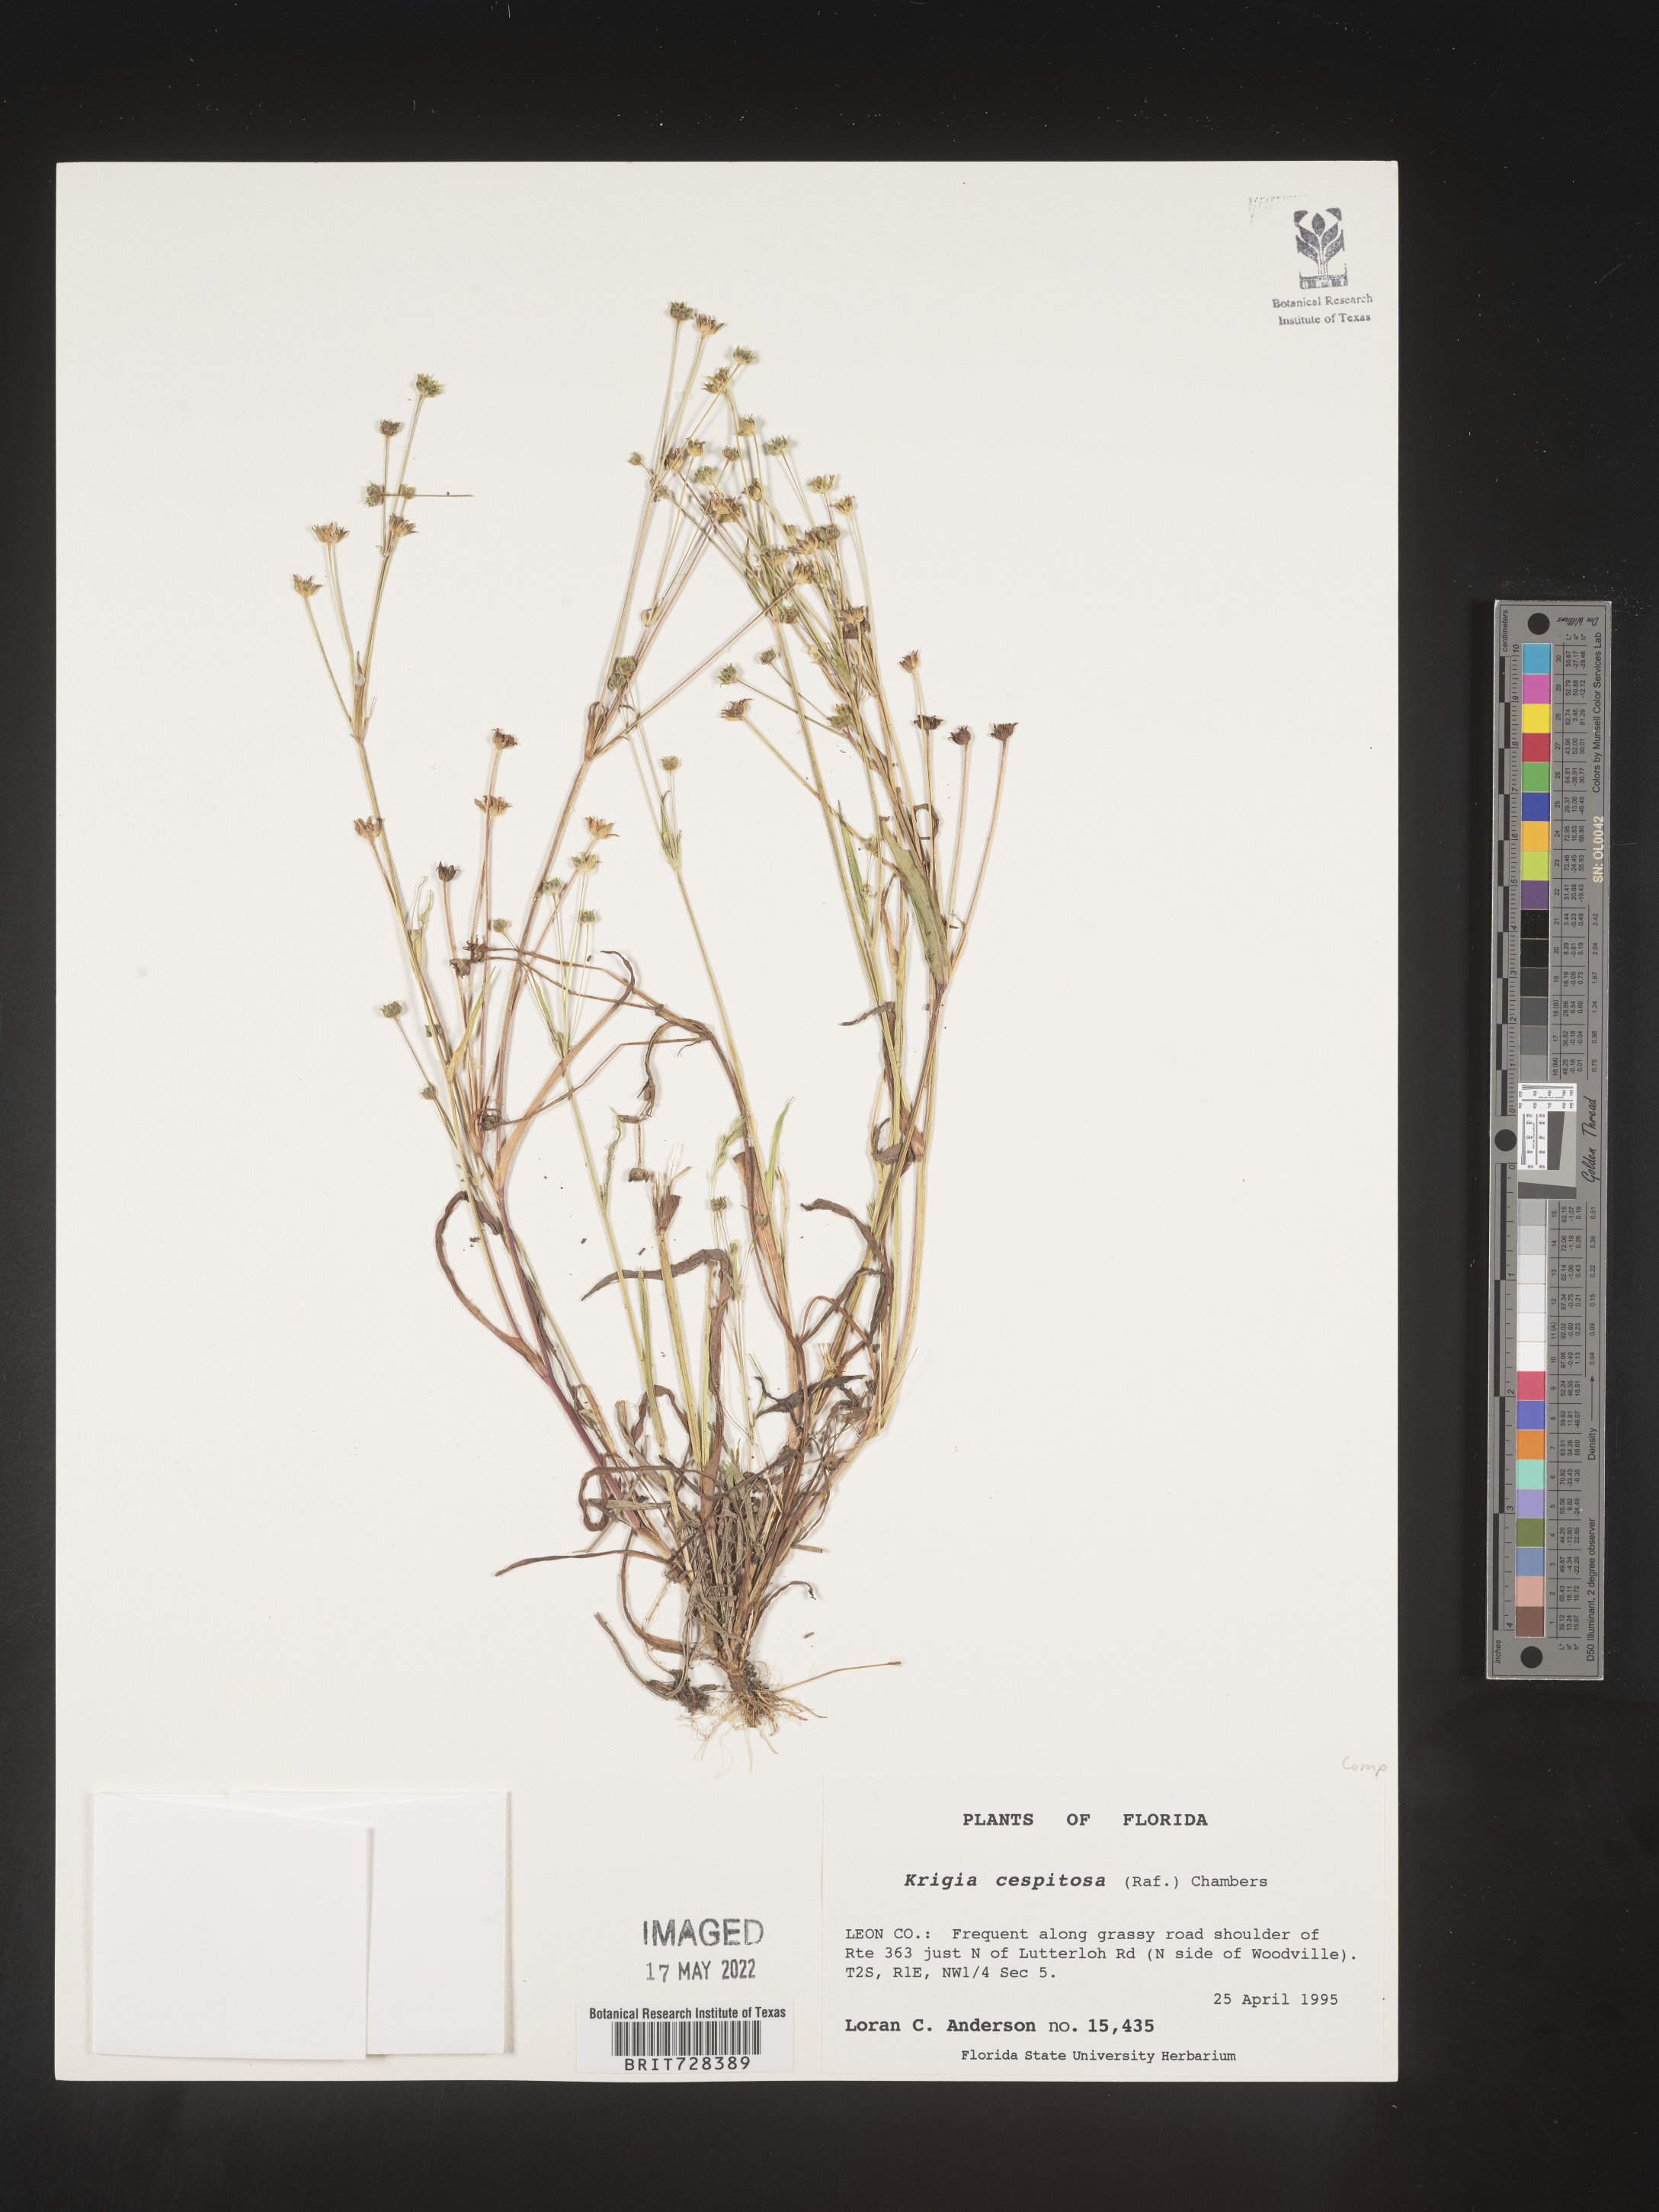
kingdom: Plantae
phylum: Tracheophyta
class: Magnoliopsida
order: Asterales
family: Asteraceae
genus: Krigia
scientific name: Krigia caespitosa
